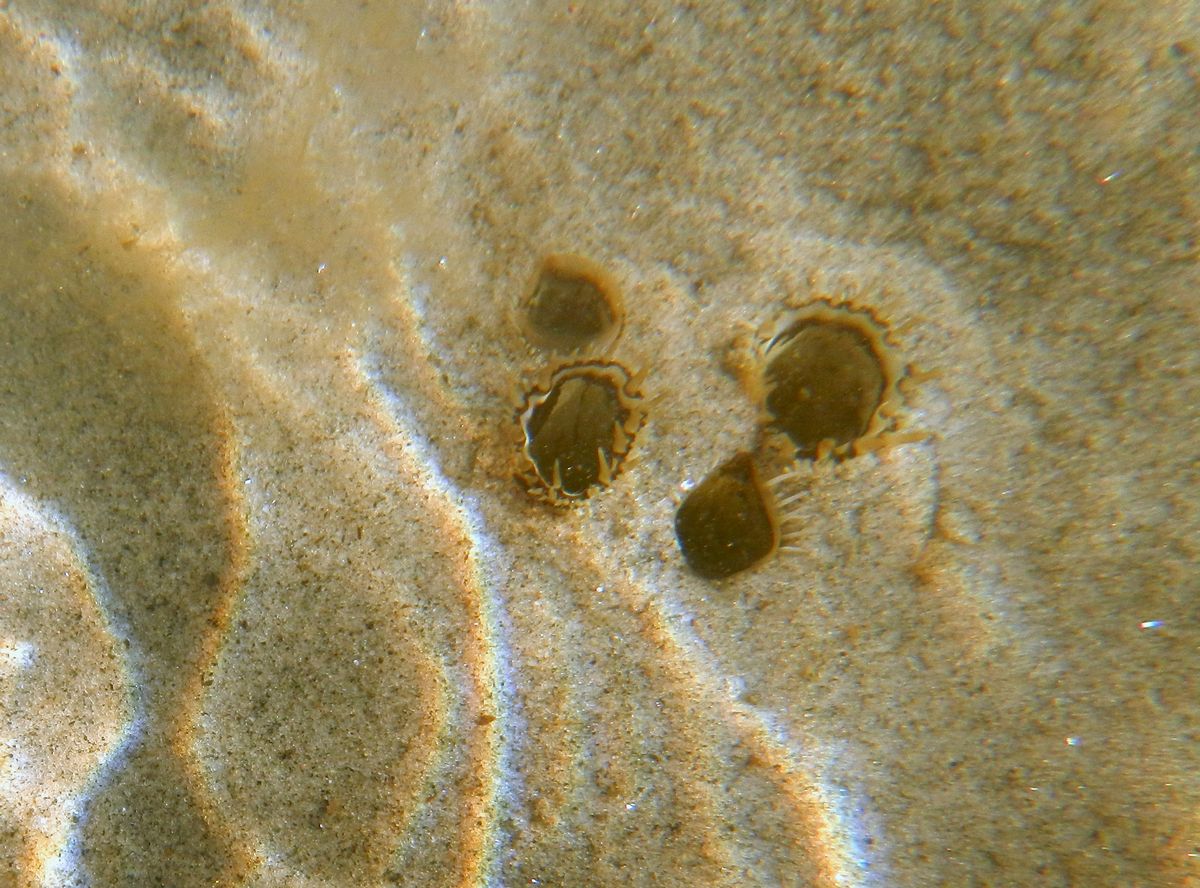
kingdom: Animalia
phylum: Mollusca
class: Bivalvia
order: Myida
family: Myidae
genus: Mya
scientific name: Mya arenaria
